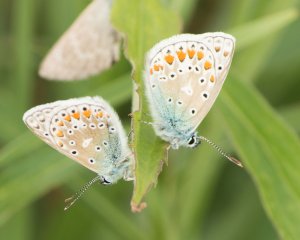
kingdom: Animalia
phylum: Arthropoda
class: Insecta
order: Lepidoptera
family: Lycaenidae
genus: Polyommatus
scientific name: Polyommatus icarus
